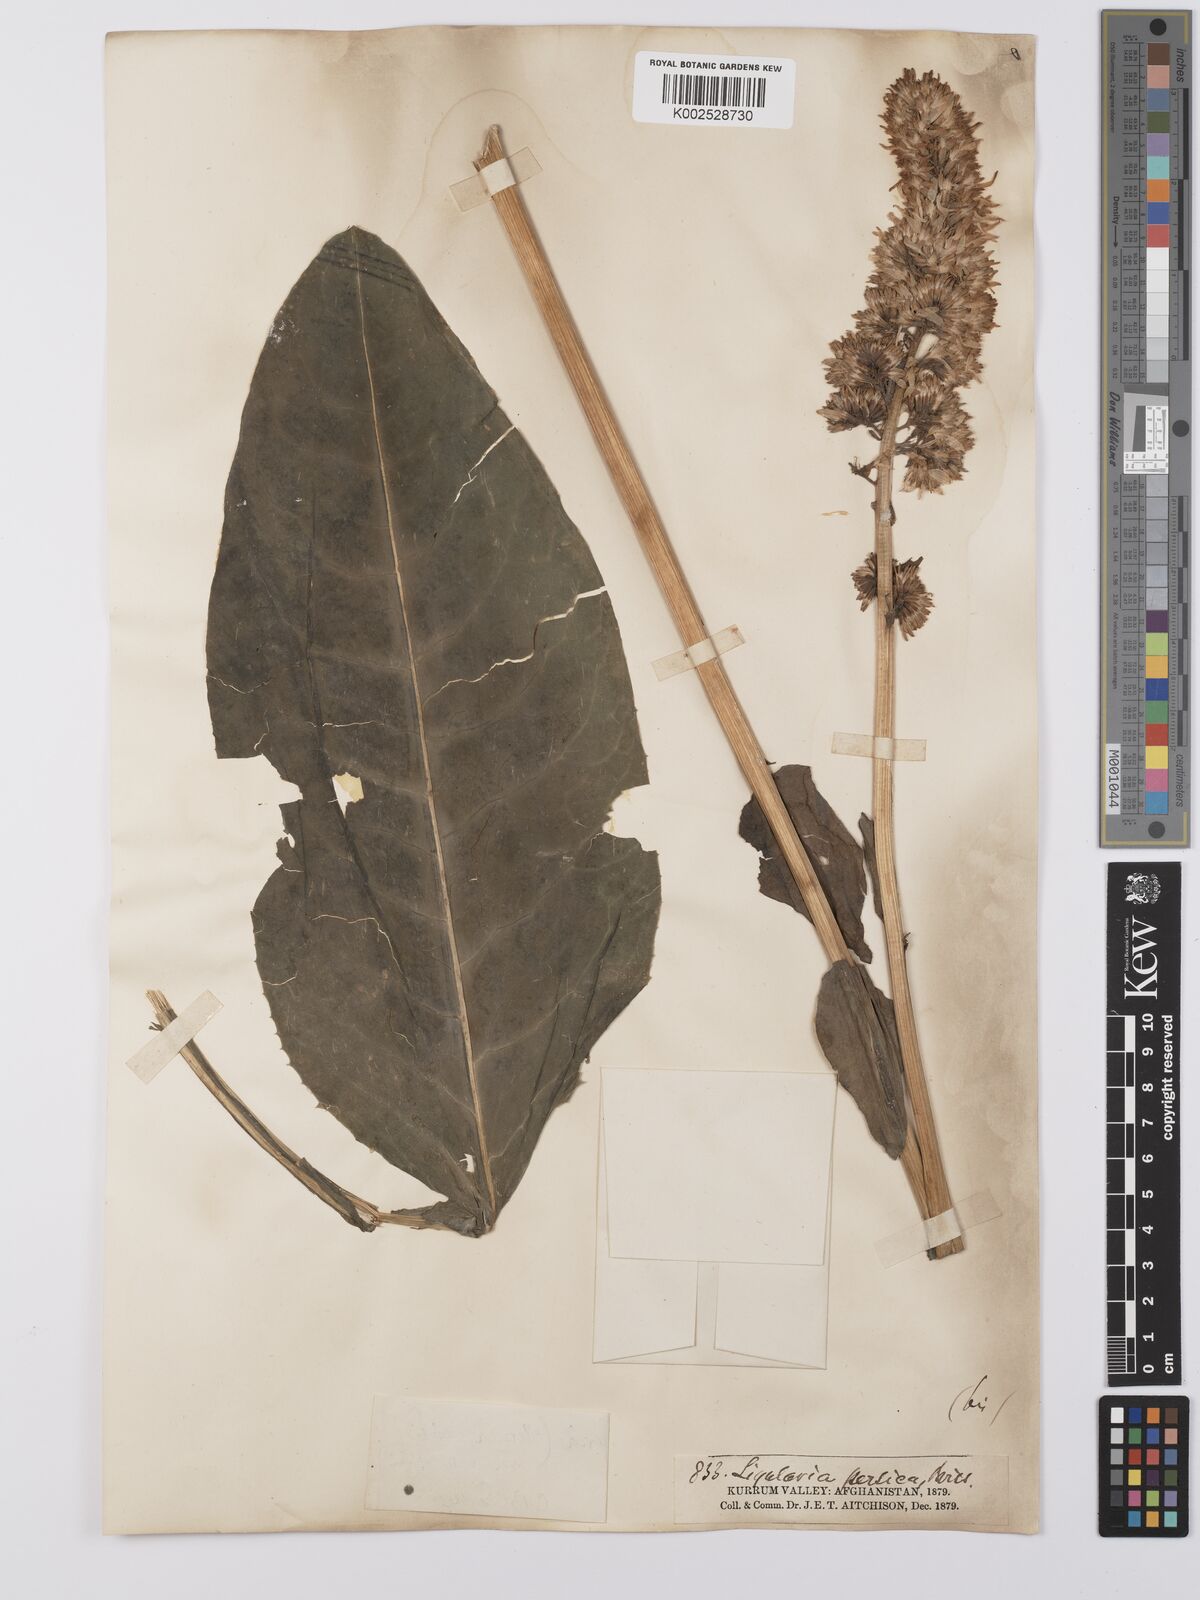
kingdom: Plantae
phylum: Tracheophyta
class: Magnoliopsida
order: Asterales
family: Asteraceae
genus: Ligularia
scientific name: Ligularia afghanica
